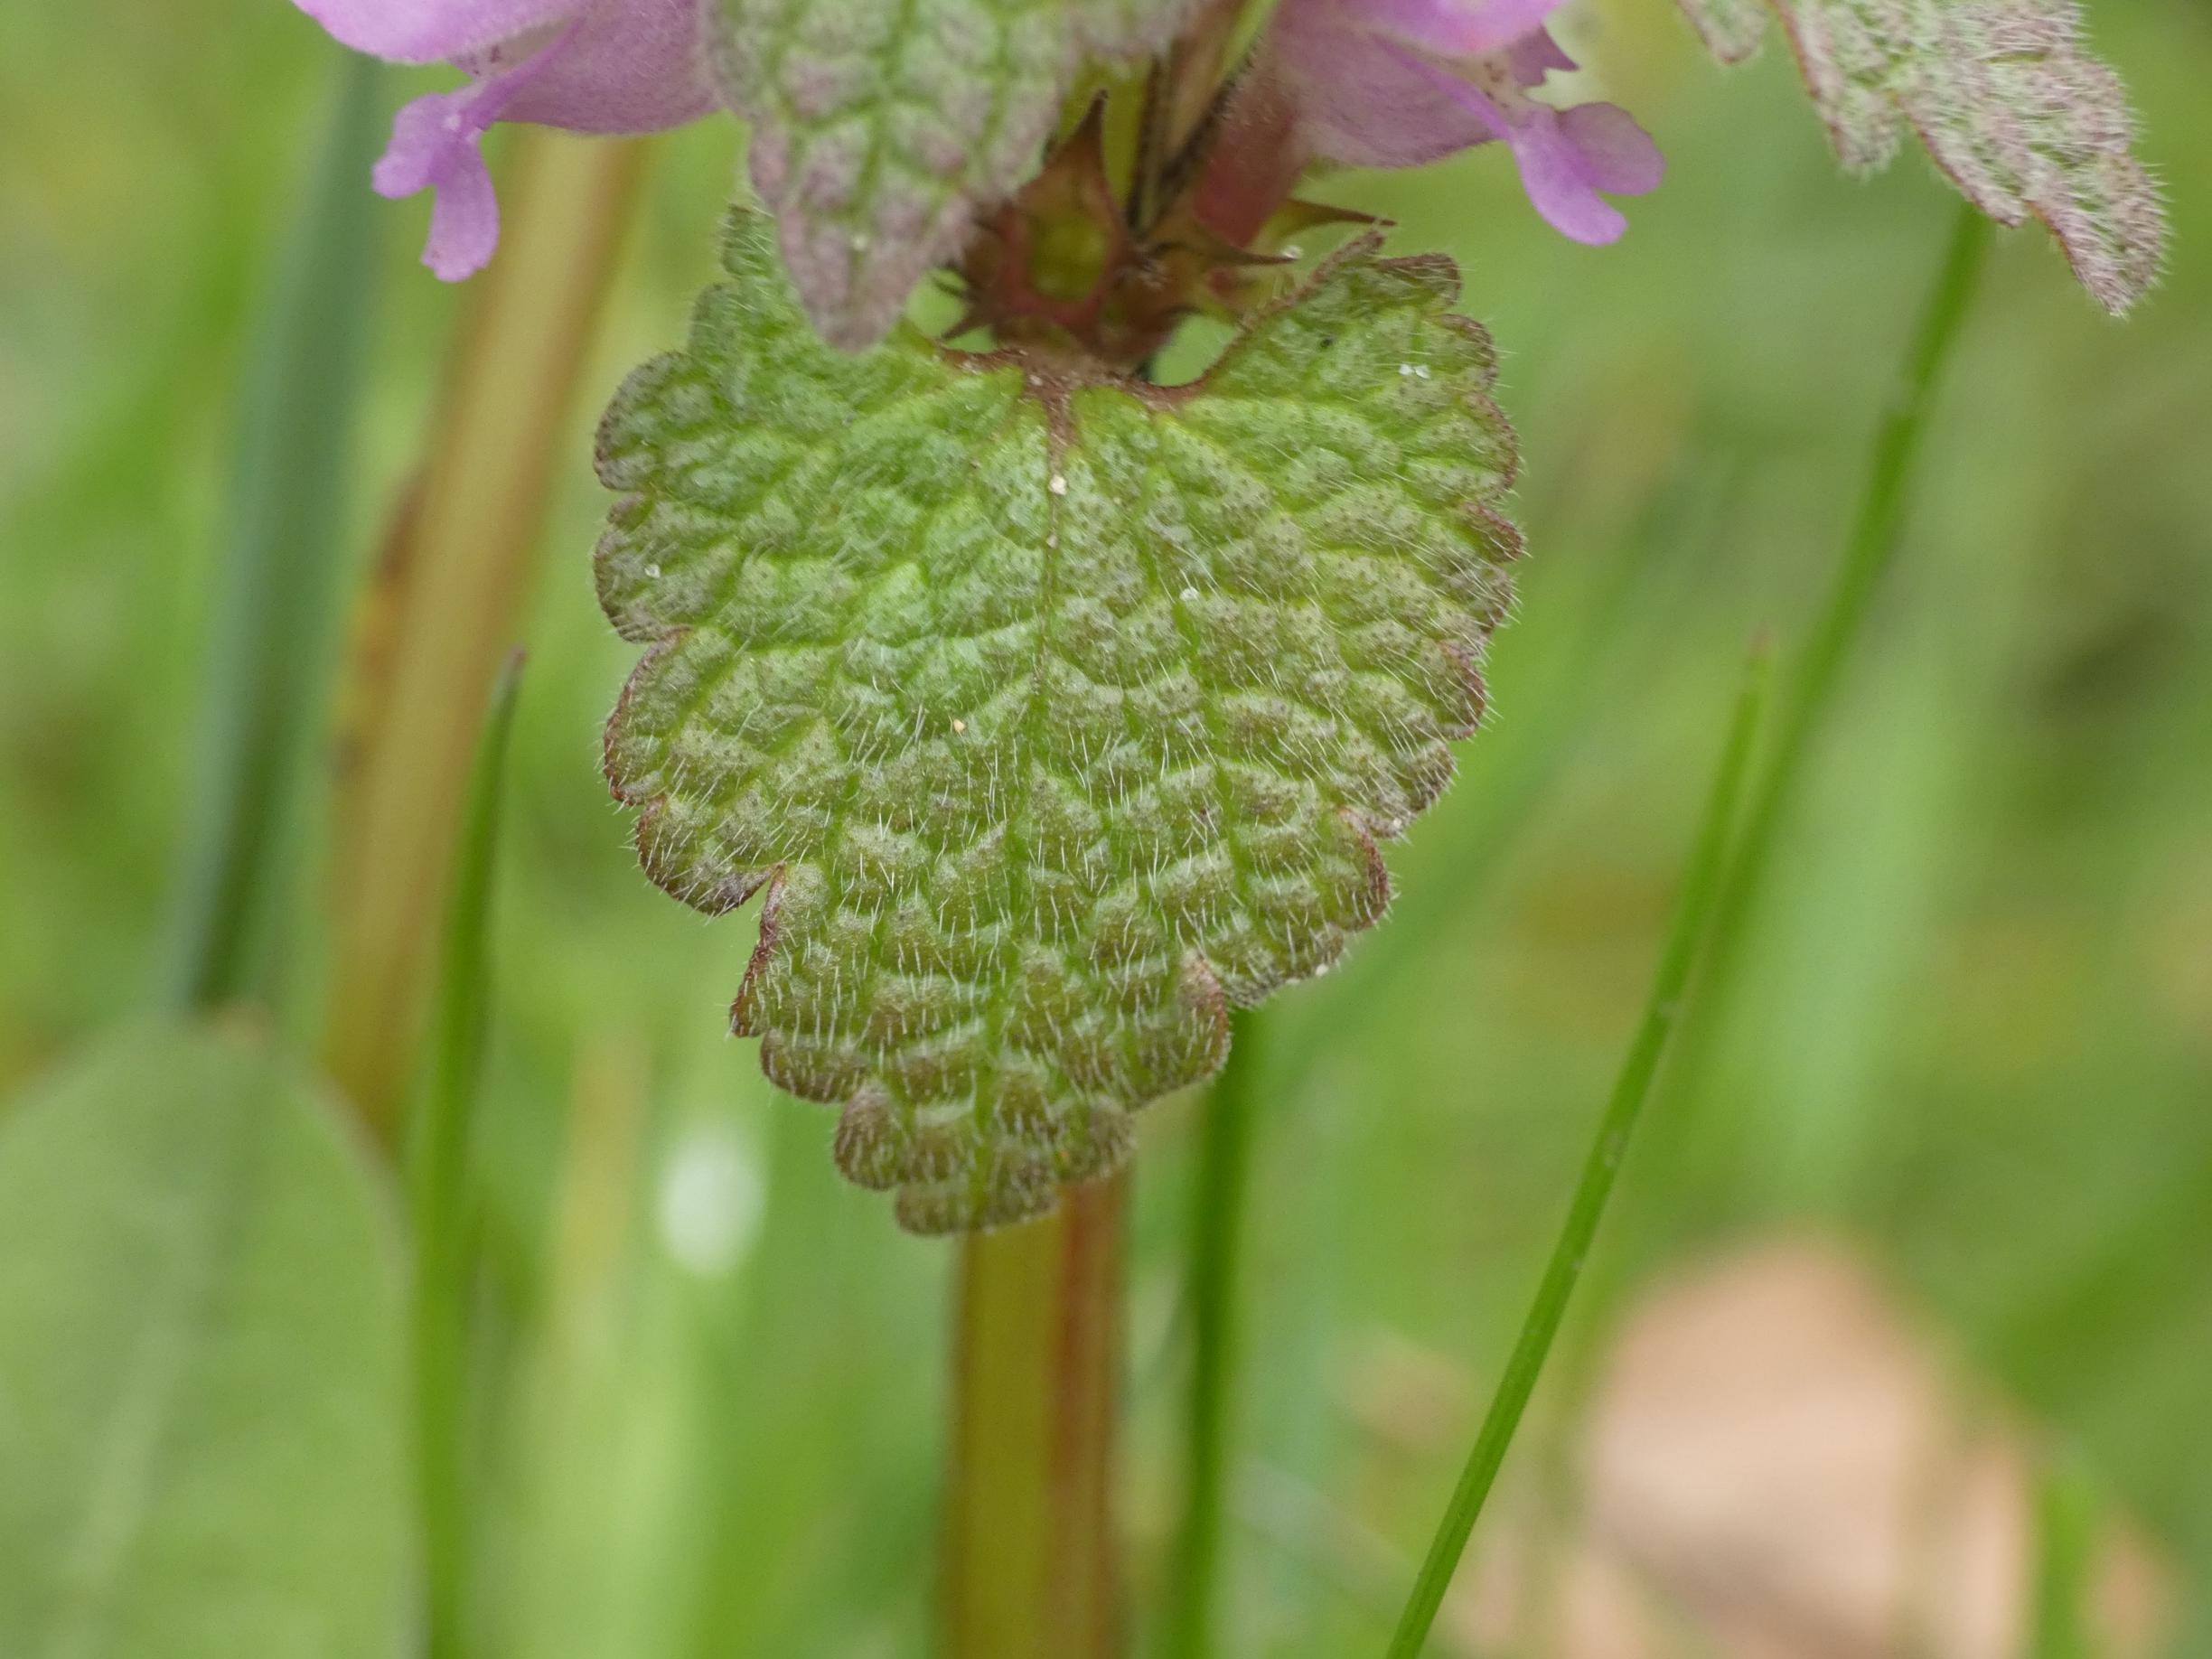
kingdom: Plantae
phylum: Tracheophyta
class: Magnoliopsida
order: Lamiales
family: Lamiaceae
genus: Lamium
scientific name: Lamium purpureum
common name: Rød tvetand
